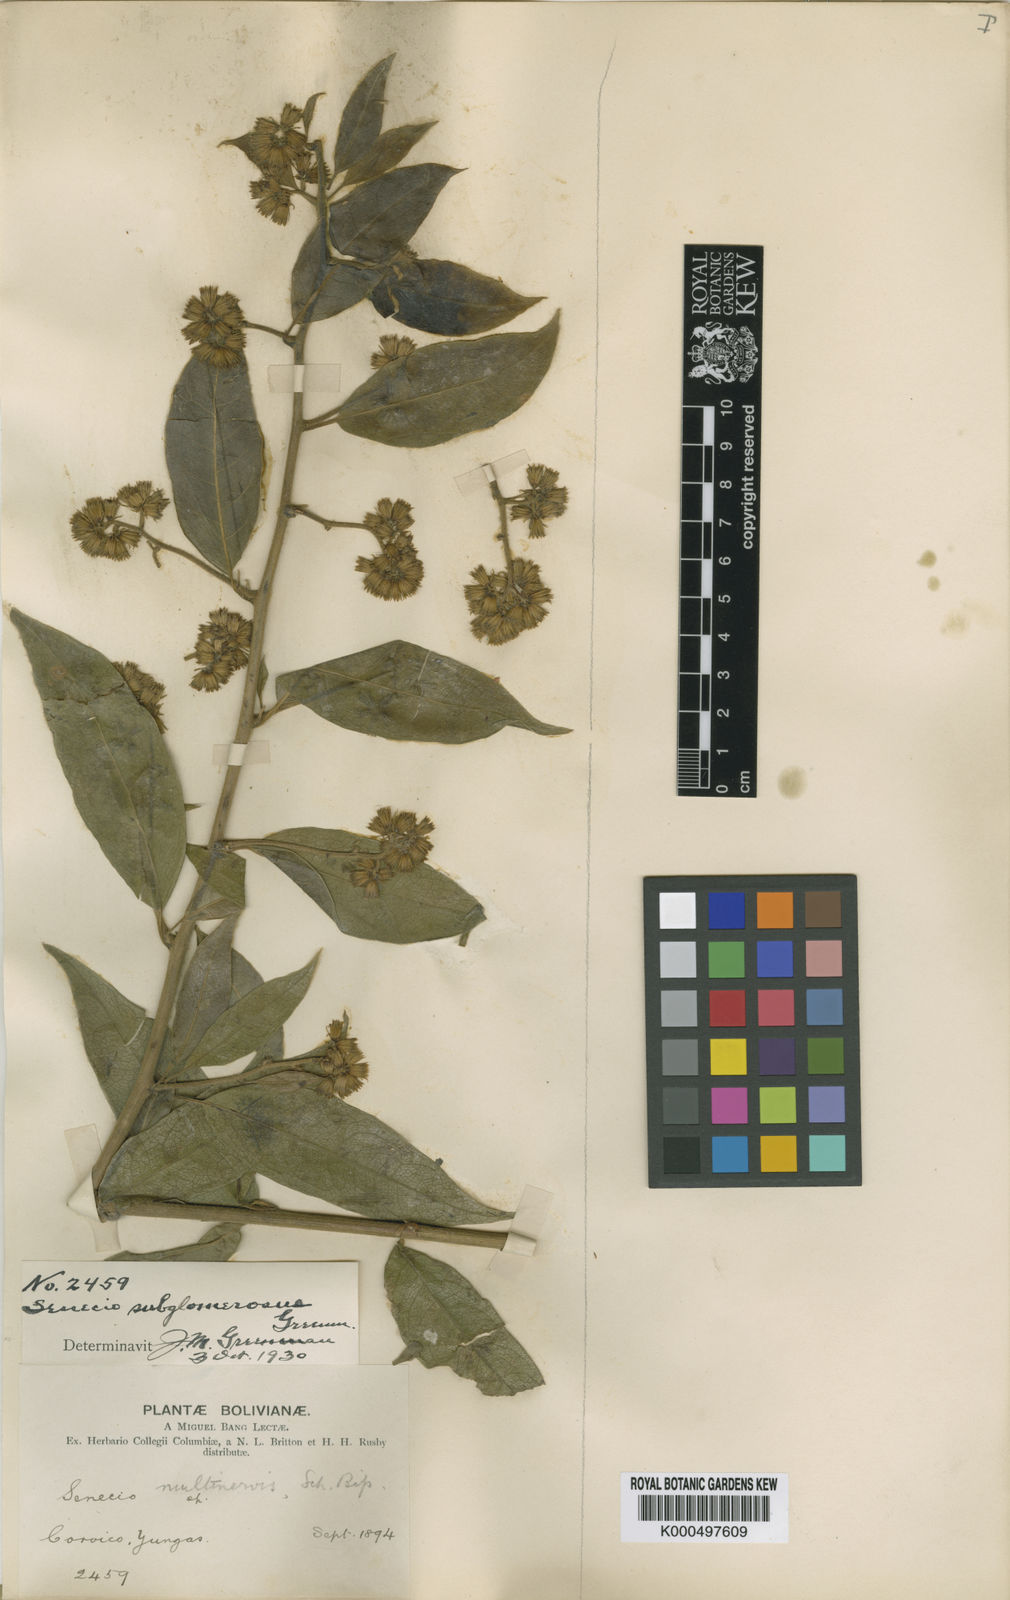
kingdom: Plantae
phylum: Tracheophyta
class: Magnoliopsida
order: Asterales
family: Asteraceae
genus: Pentacalia
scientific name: Pentacalia subglomerosa
